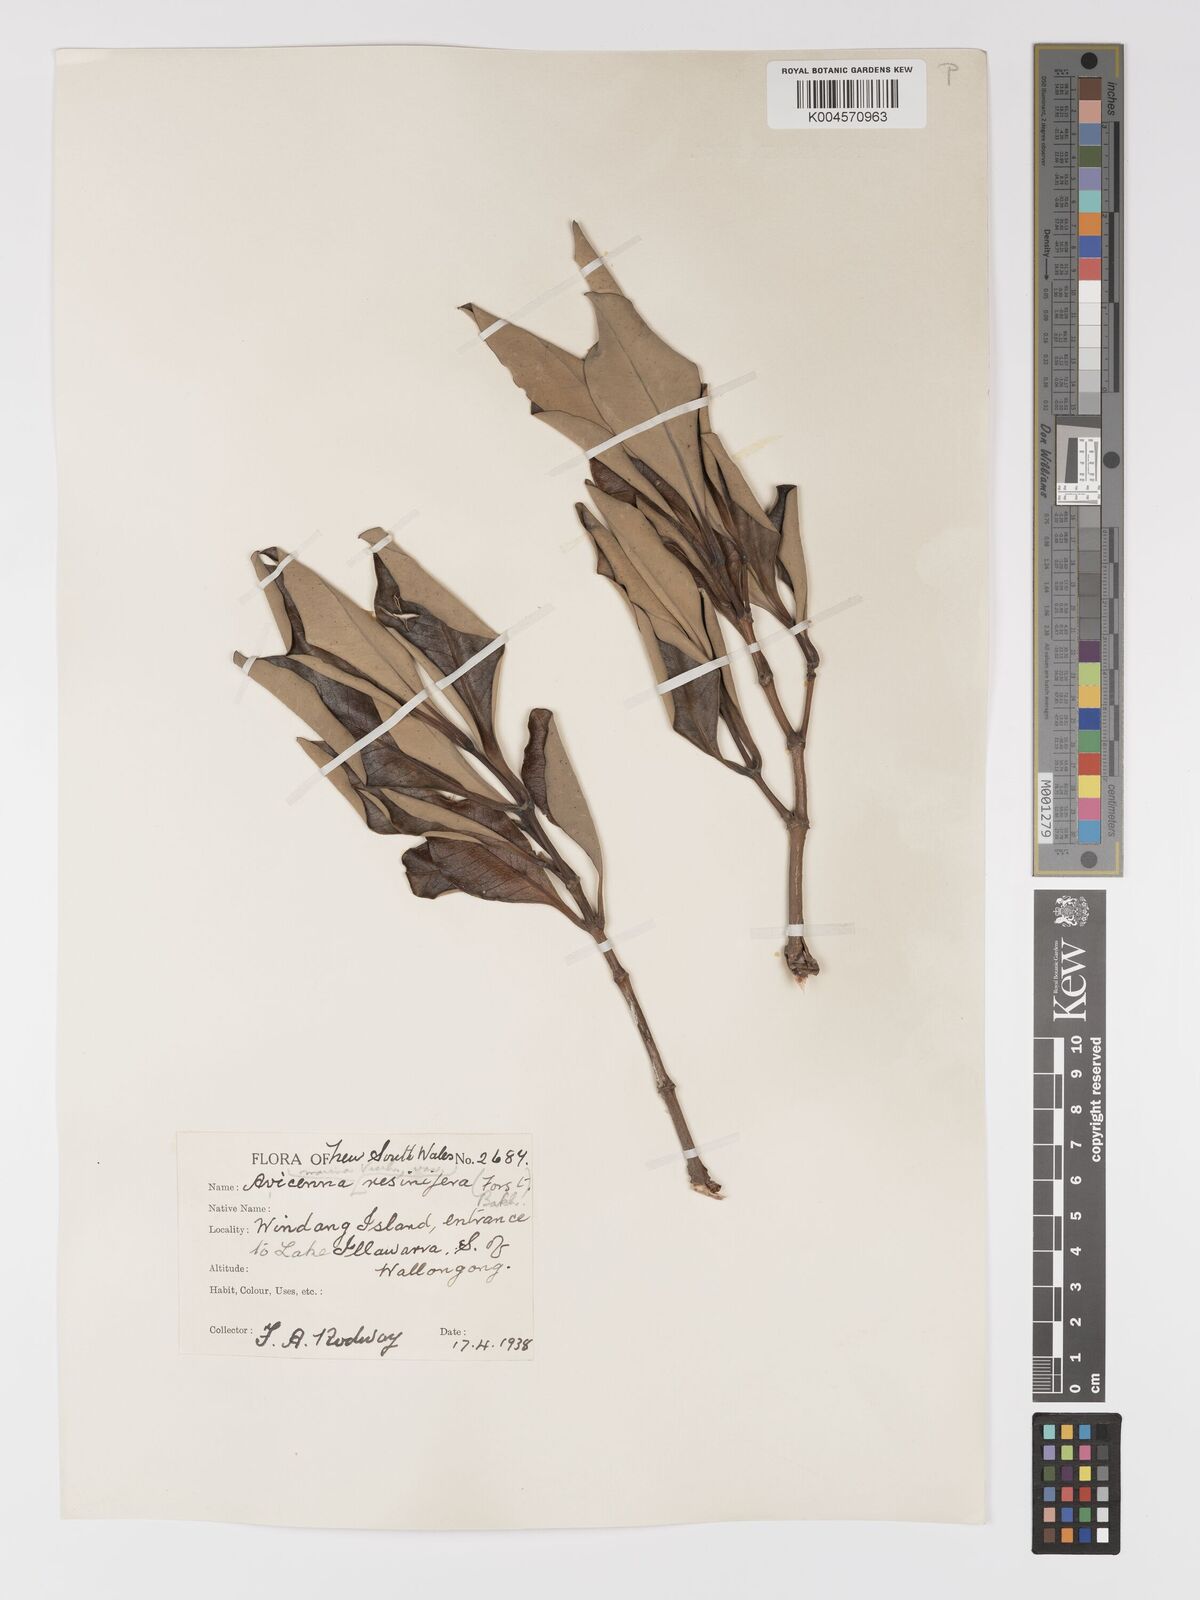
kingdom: Plantae
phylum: Tracheophyta
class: Magnoliopsida
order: Lamiales
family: Acanthaceae
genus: Avicennia
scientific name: Avicennia marina
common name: Gray mangrove
